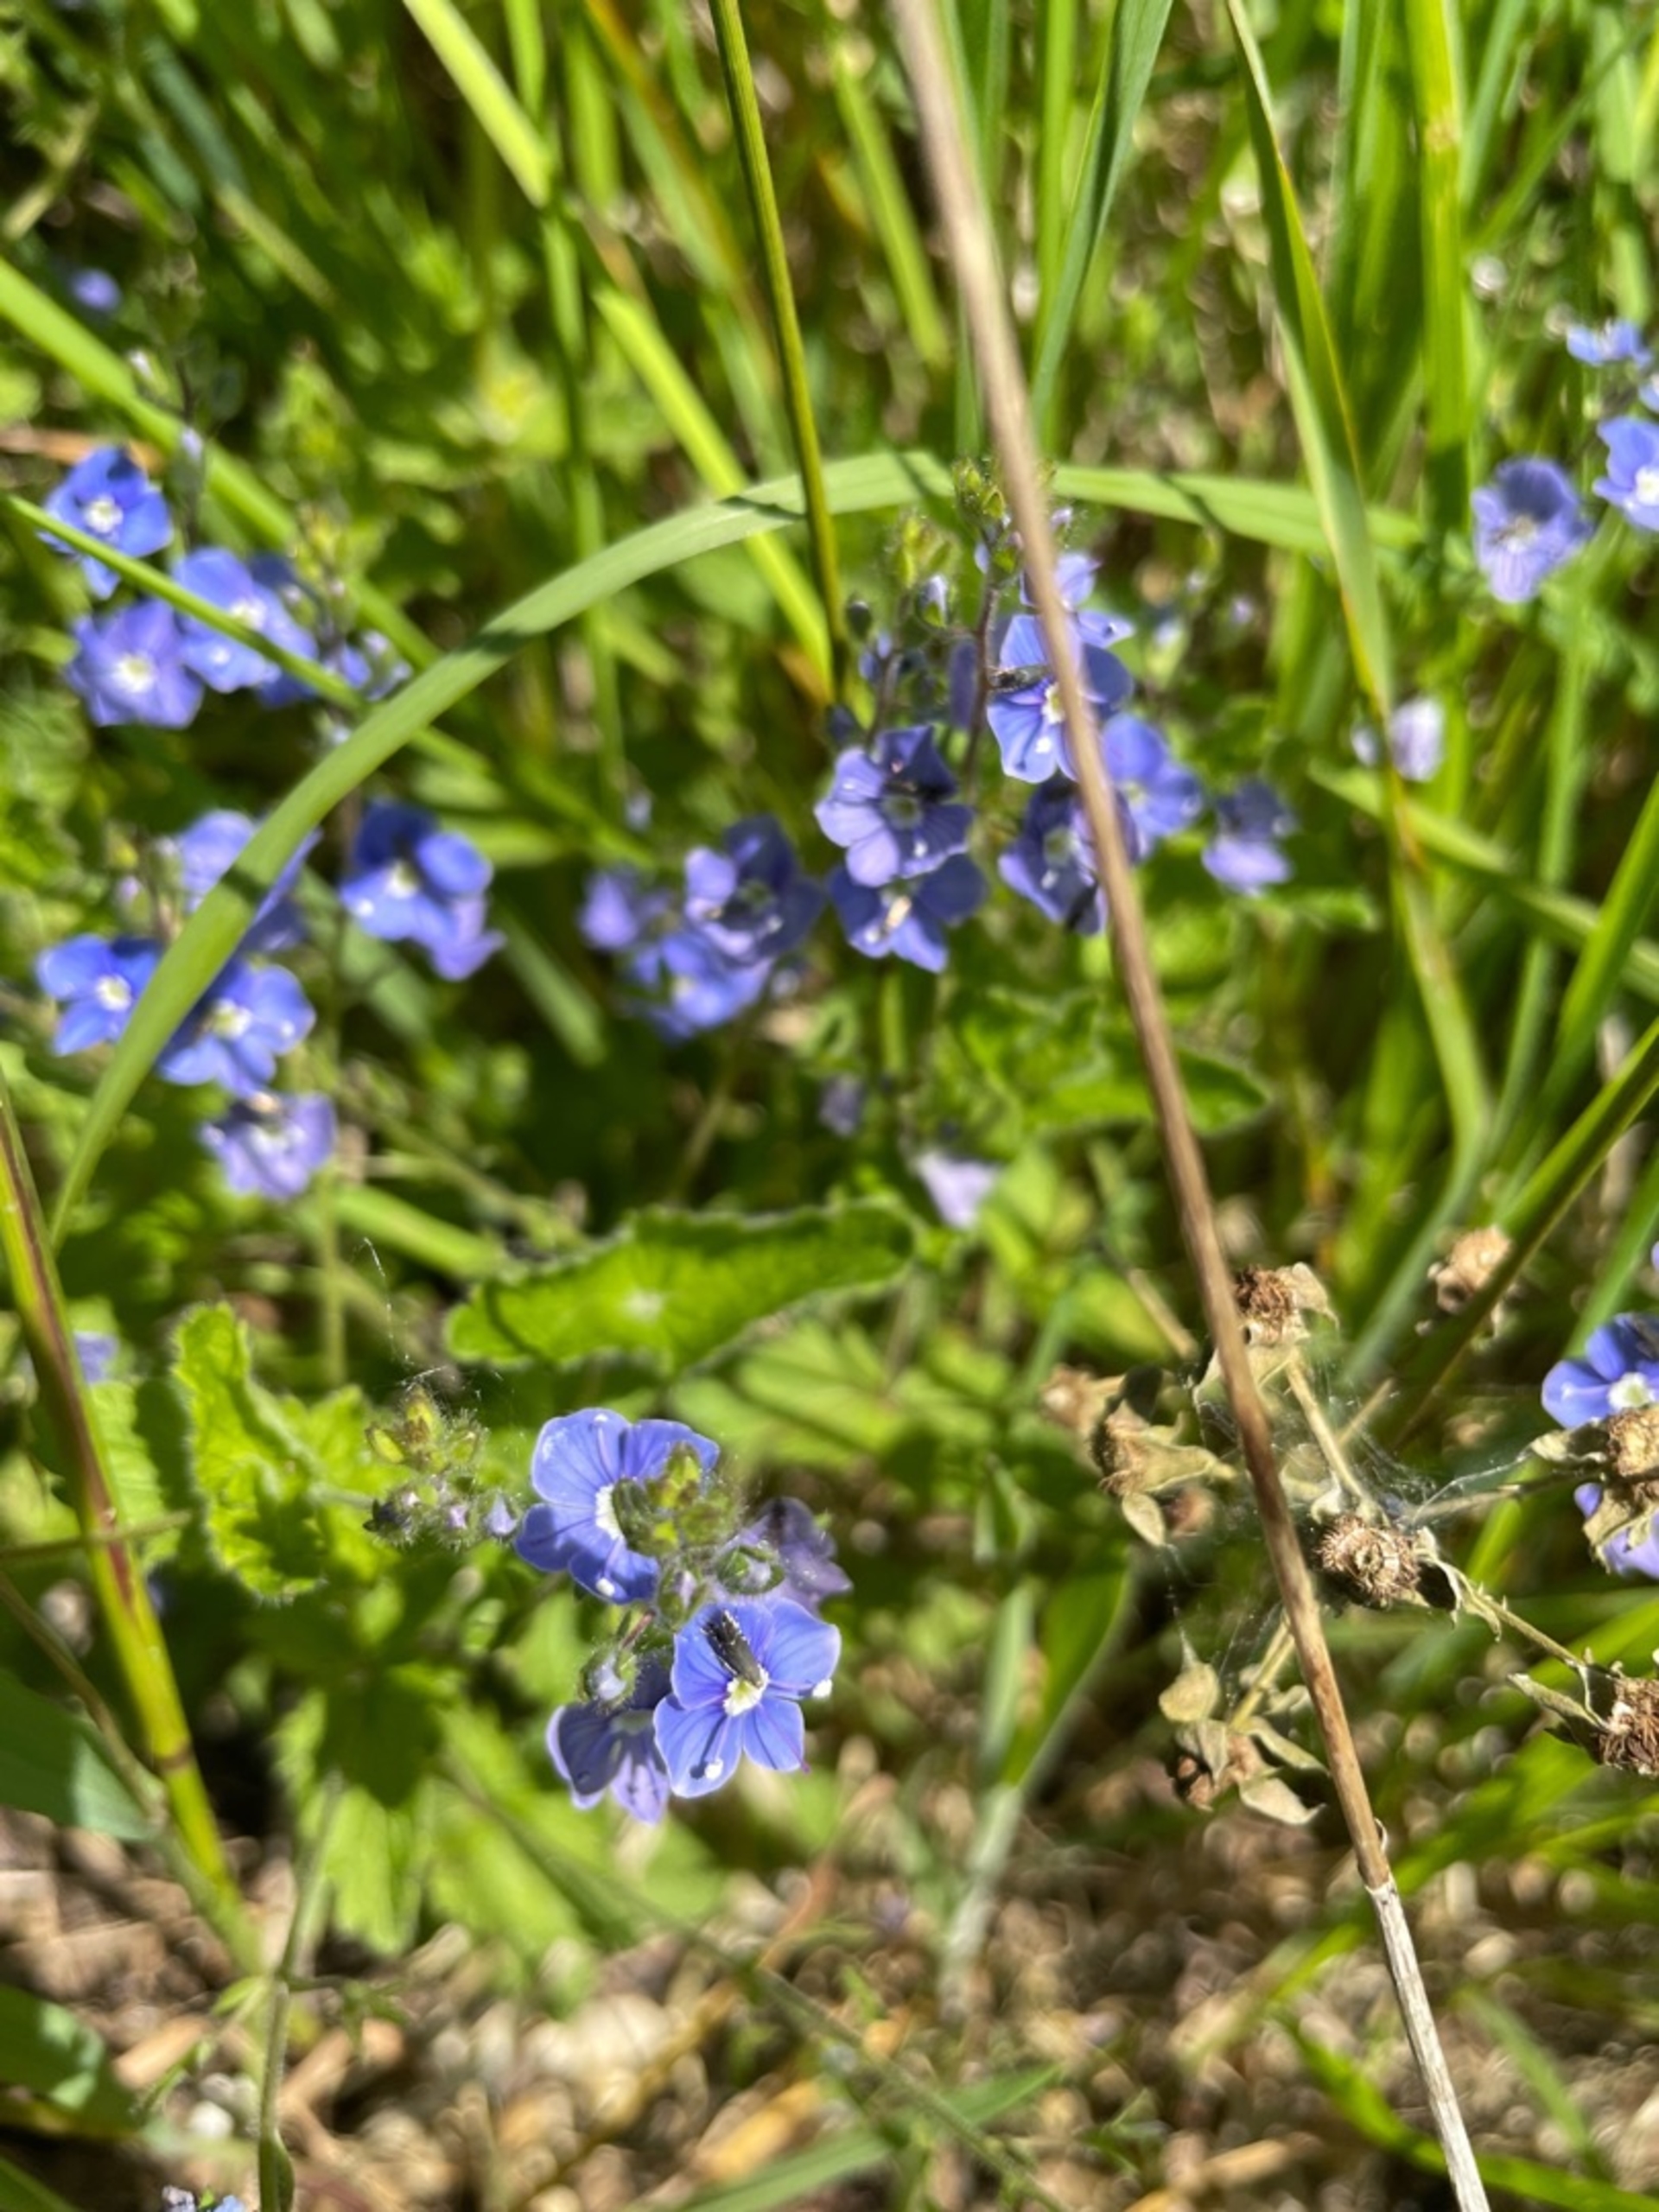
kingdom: Plantae
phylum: Tracheophyta
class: Magnoliopsida
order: Lamiales
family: Plantaginaceae
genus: Veronica
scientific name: Veronica chamaedrys
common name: Tveskægget ærenpris
